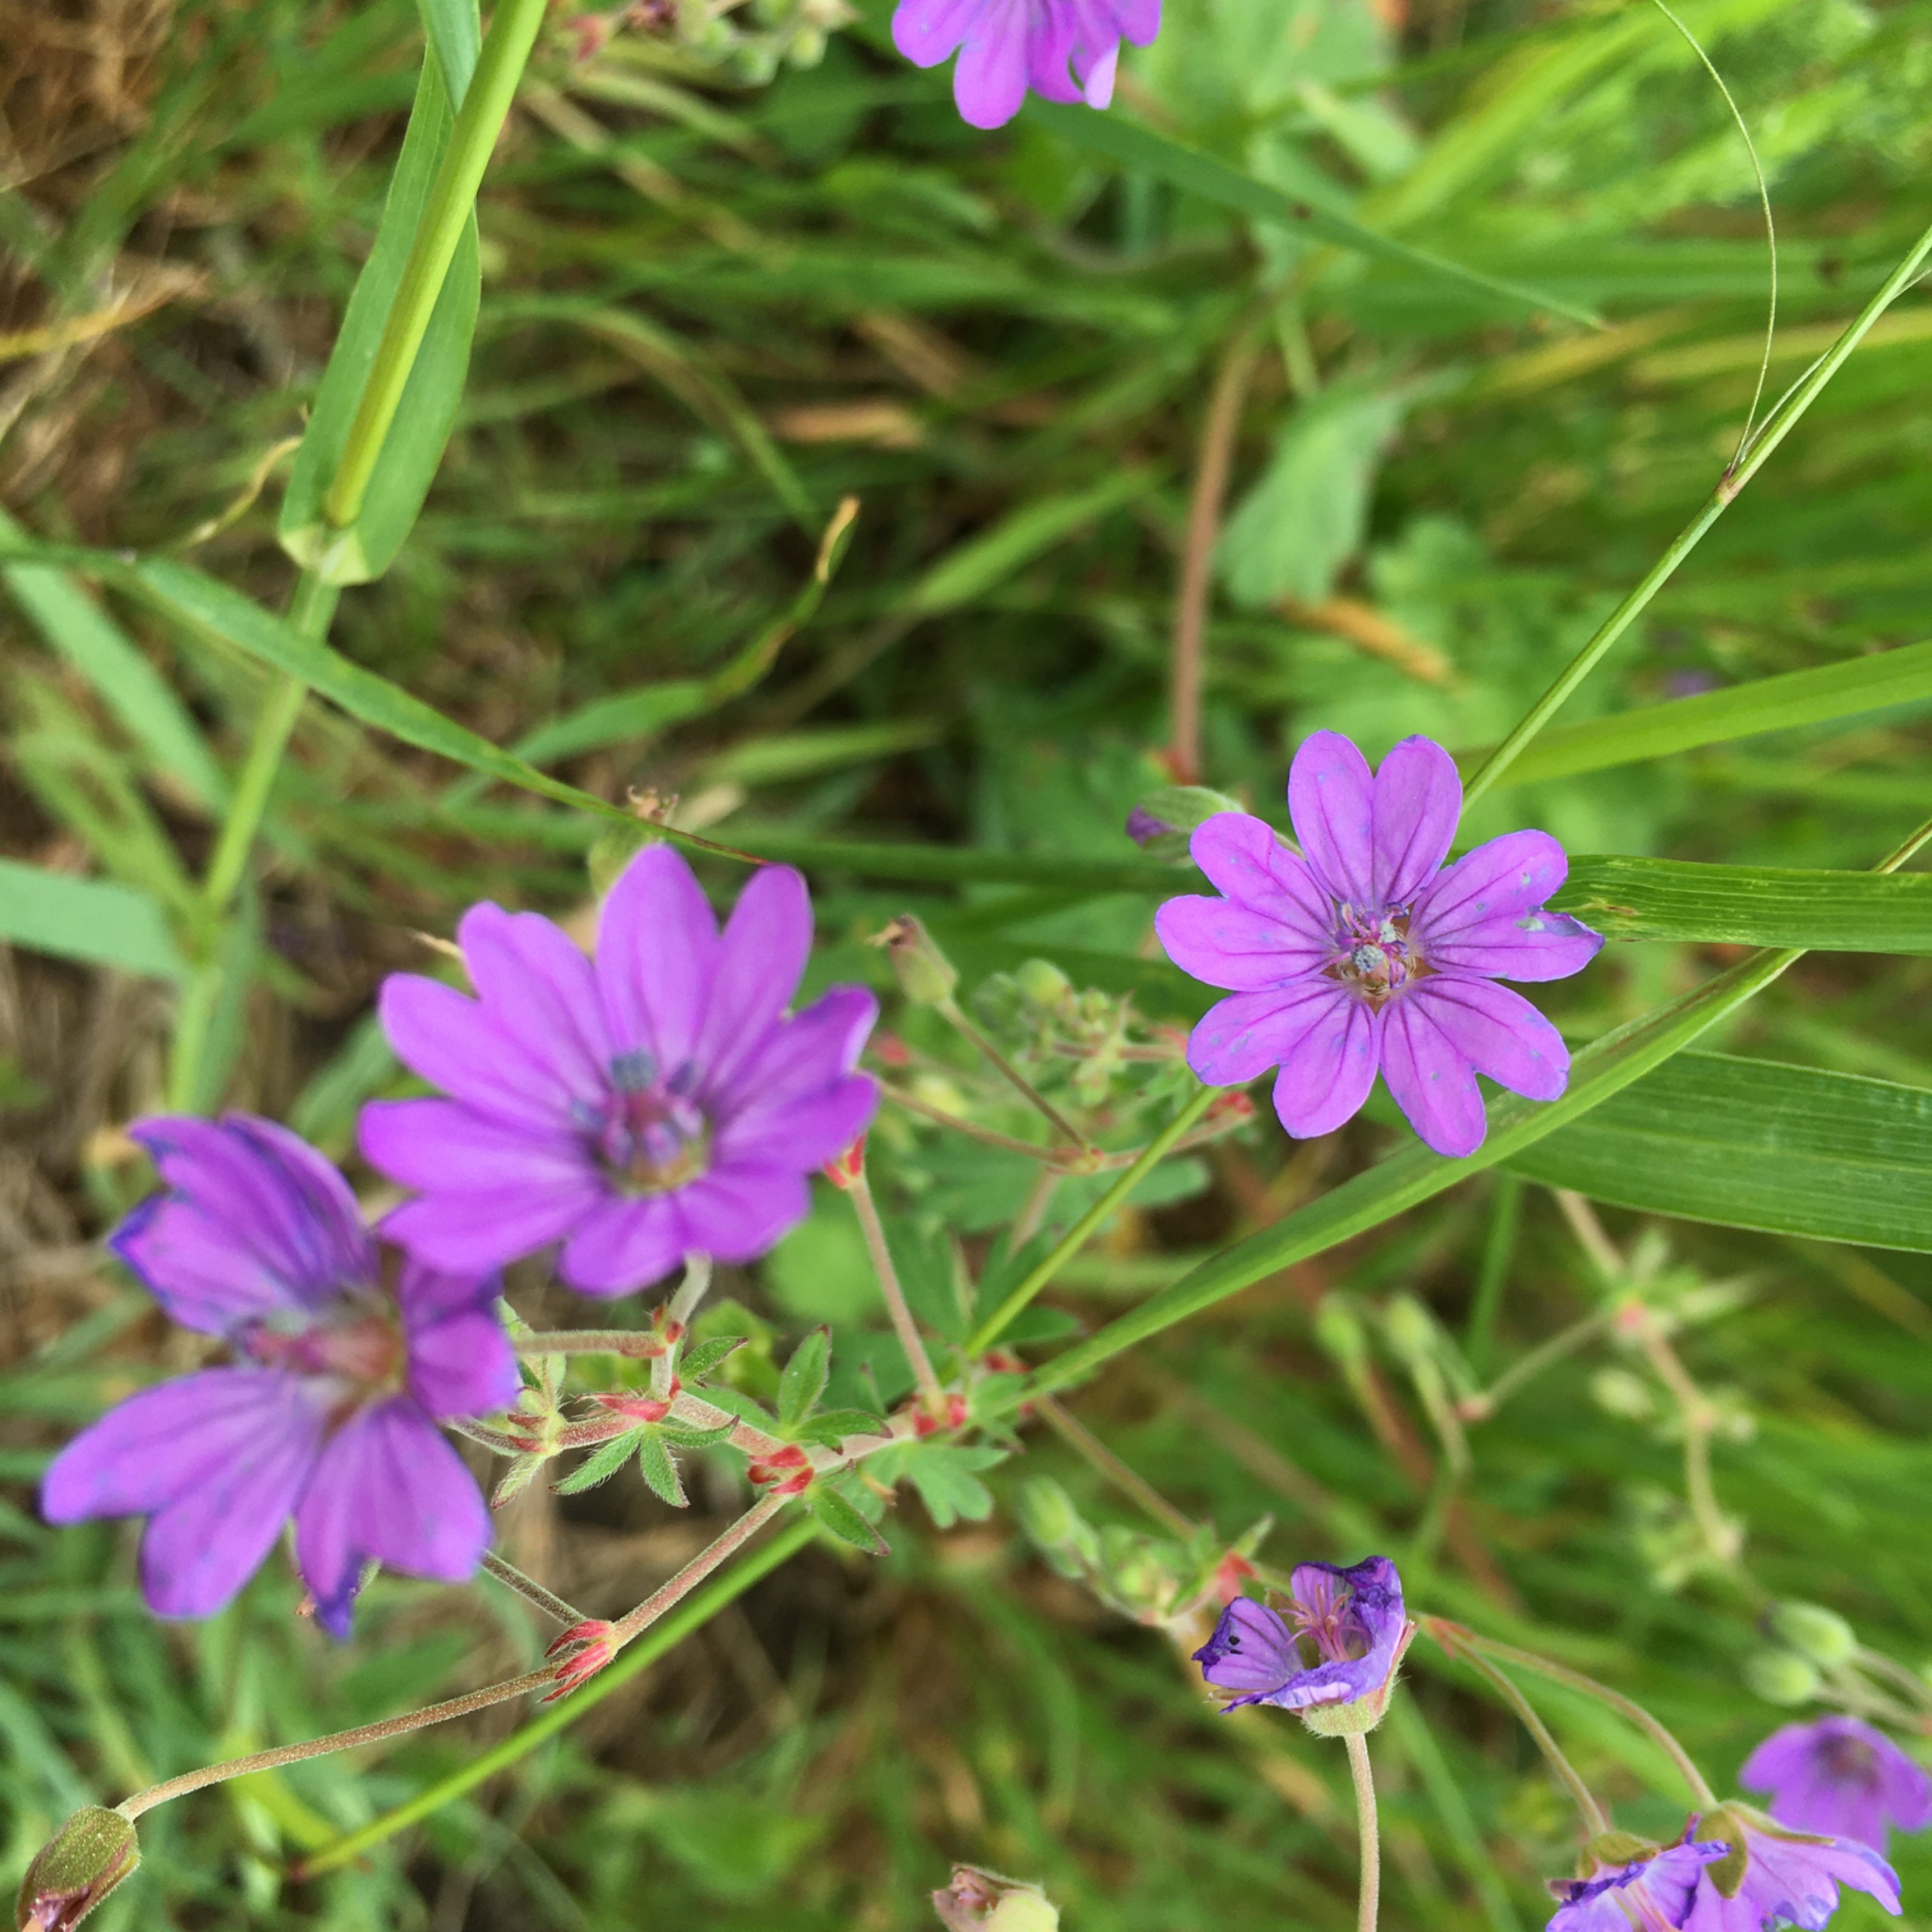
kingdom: Plantae
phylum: Tracheophyta
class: Magnoliopsida
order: Geraniales
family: Geraniaceae
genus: Geranium
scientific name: Geranium pyrenaicum
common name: Pyrenæisk storkenæb
